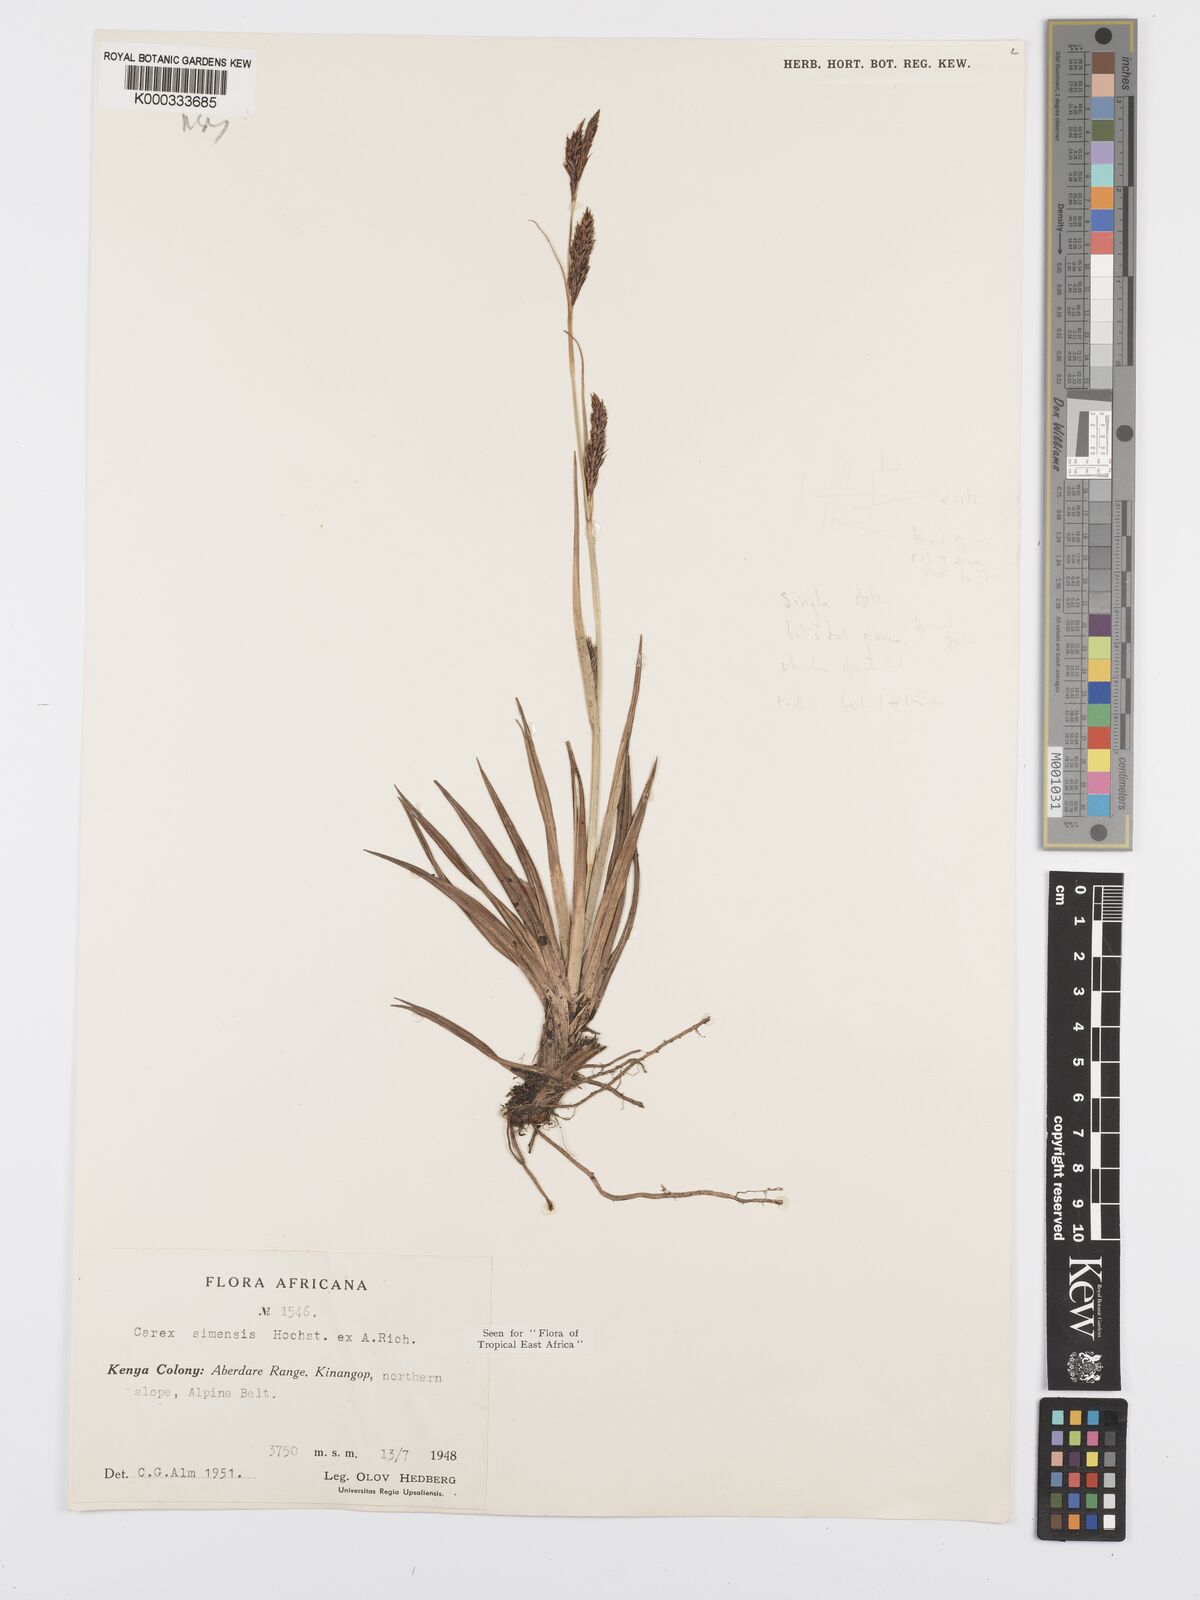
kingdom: Plantae
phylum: Tracheophyta
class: Liliopsida
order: Poales
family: Cyperaceae
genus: Carex
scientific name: Carex simensis
